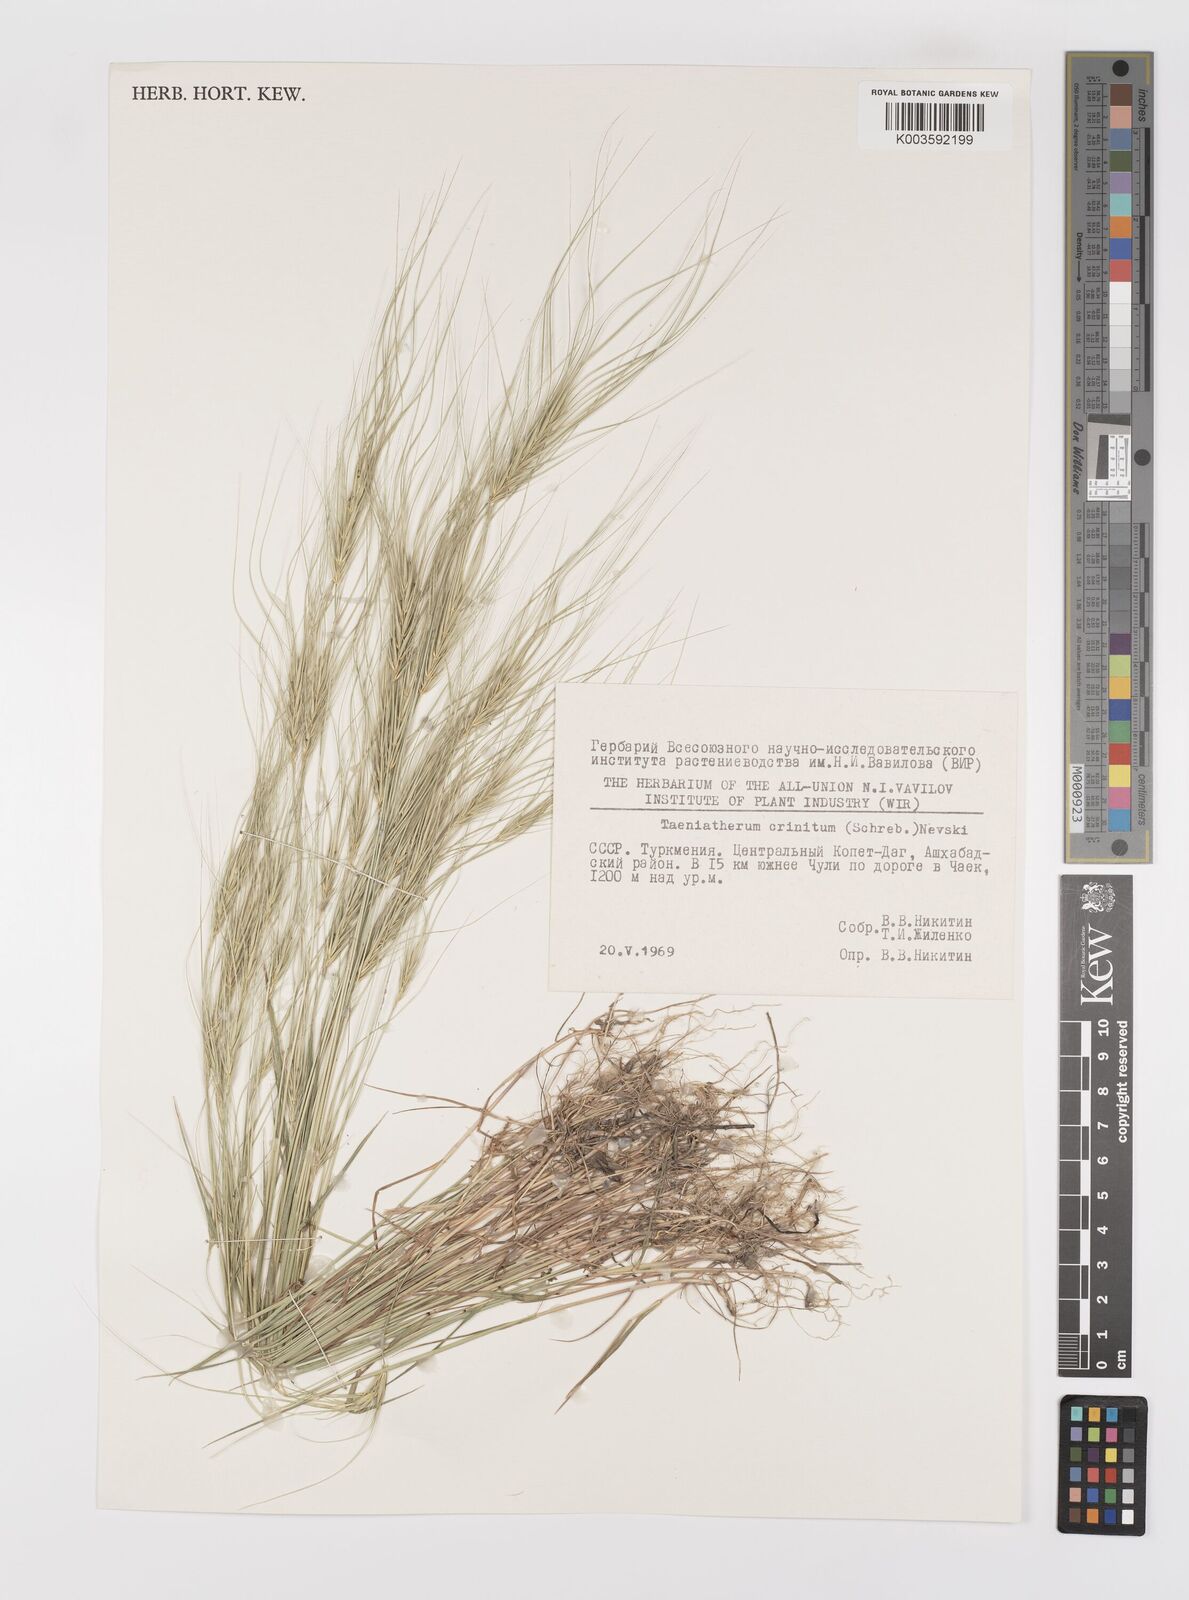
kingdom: Plantae
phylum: Tracheophyta
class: Liliopsida
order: Poales
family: Poaceae
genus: Taeniatherum
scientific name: Taeniatherum caput-medusae
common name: Medusahead
